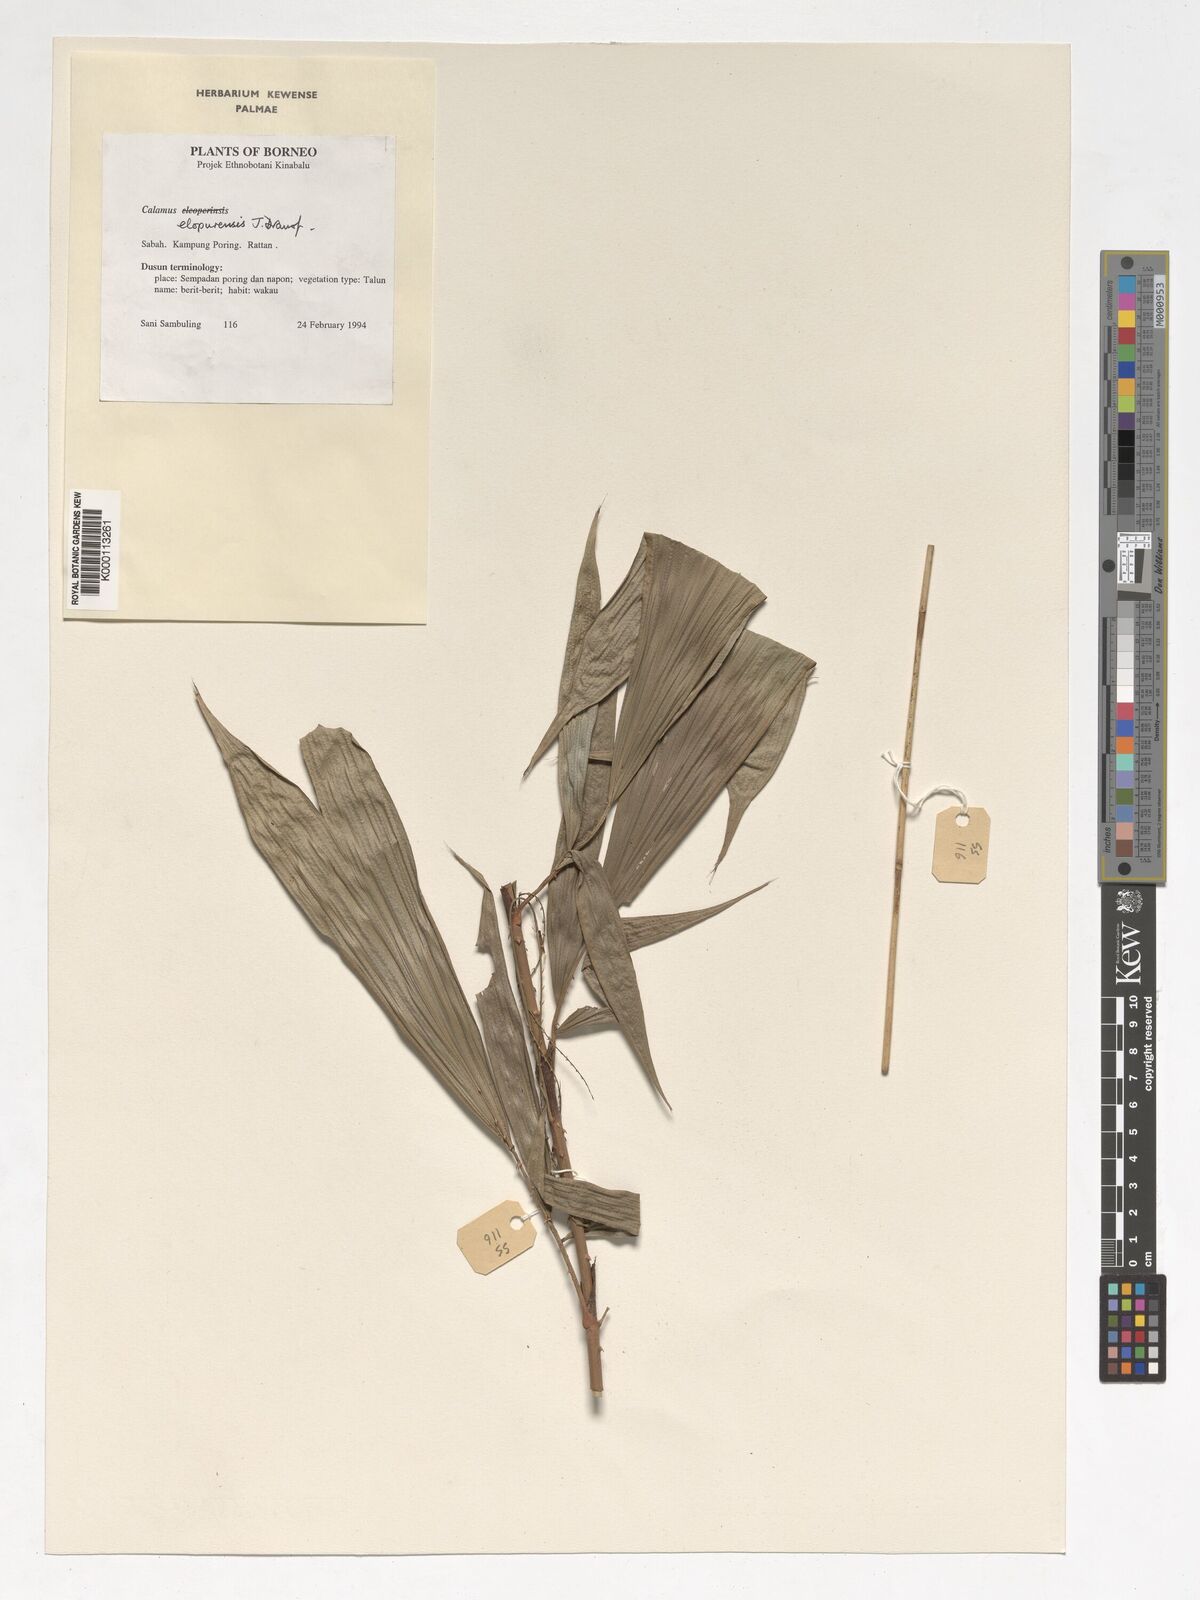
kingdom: Plantae
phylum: Tracheophyta
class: Liliopsida
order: Arecales
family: Arecaceae
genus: Calamus
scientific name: Calamus javensis
